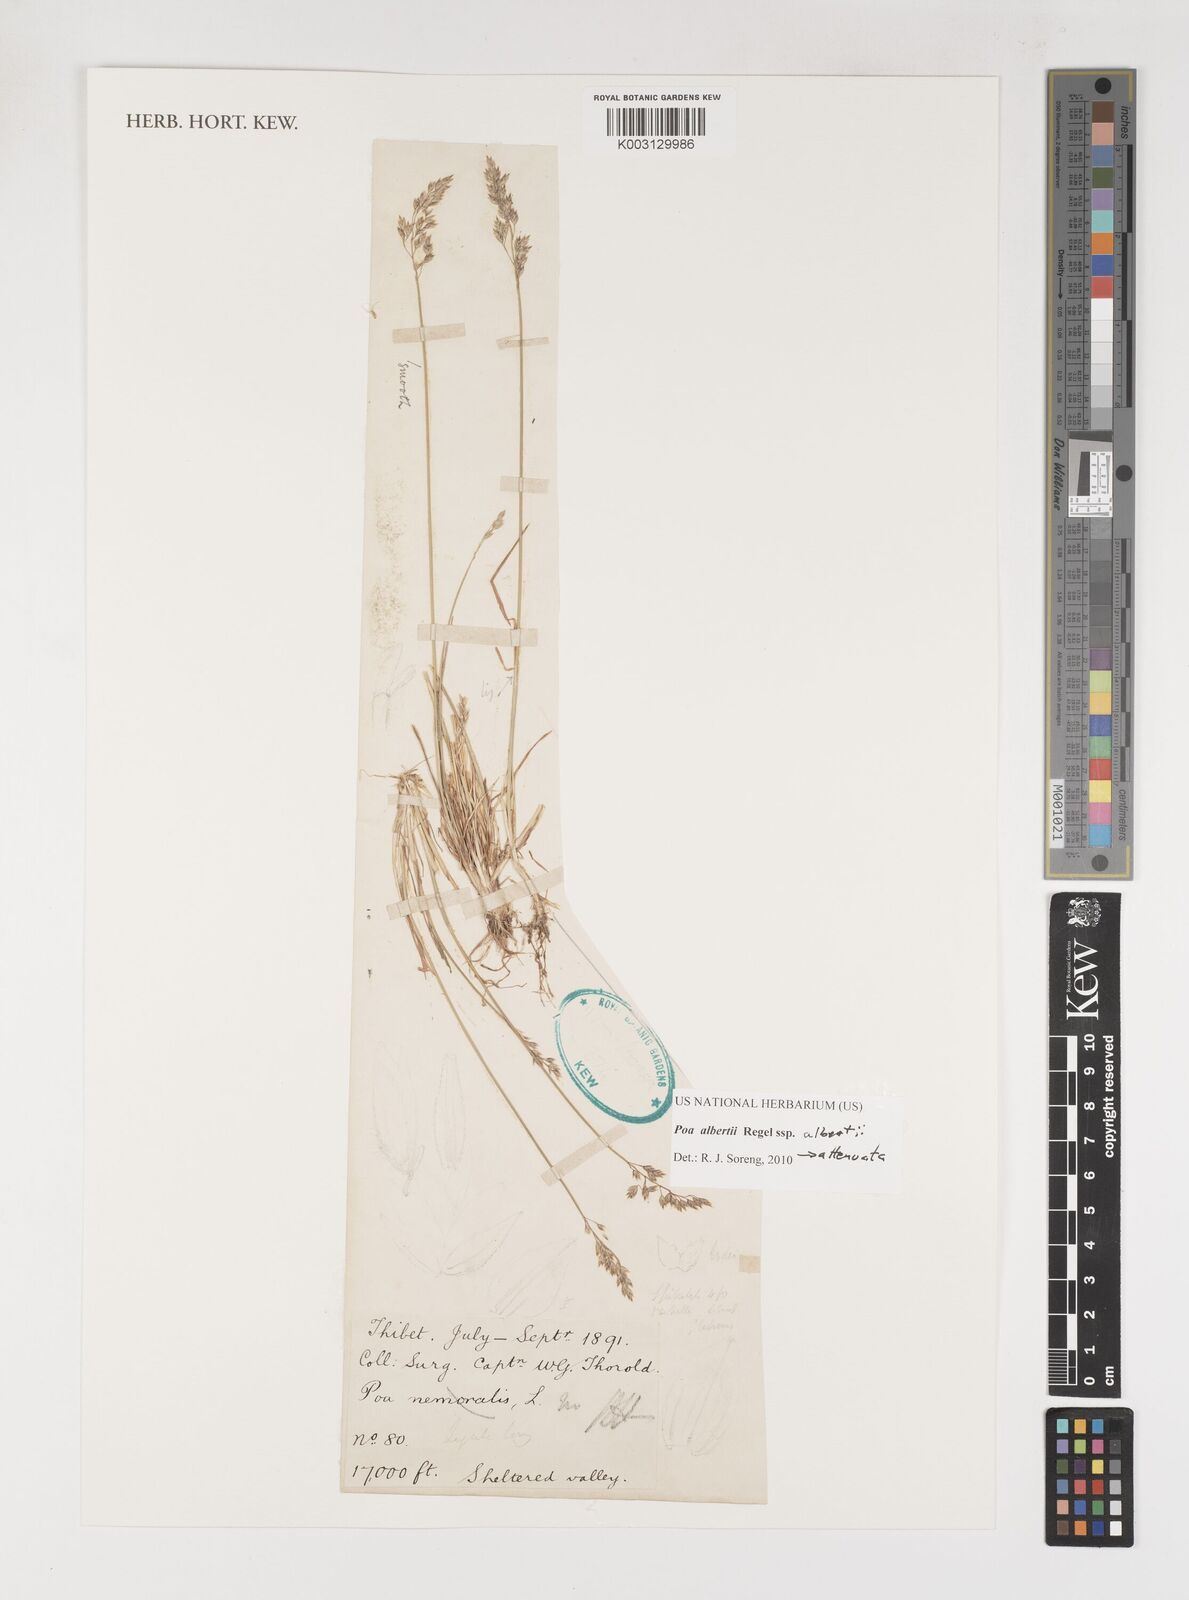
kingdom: Plantae
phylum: Tracheophyta
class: Liliopsida
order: Poales
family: Poaceae
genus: Poa
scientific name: Poa alberti
